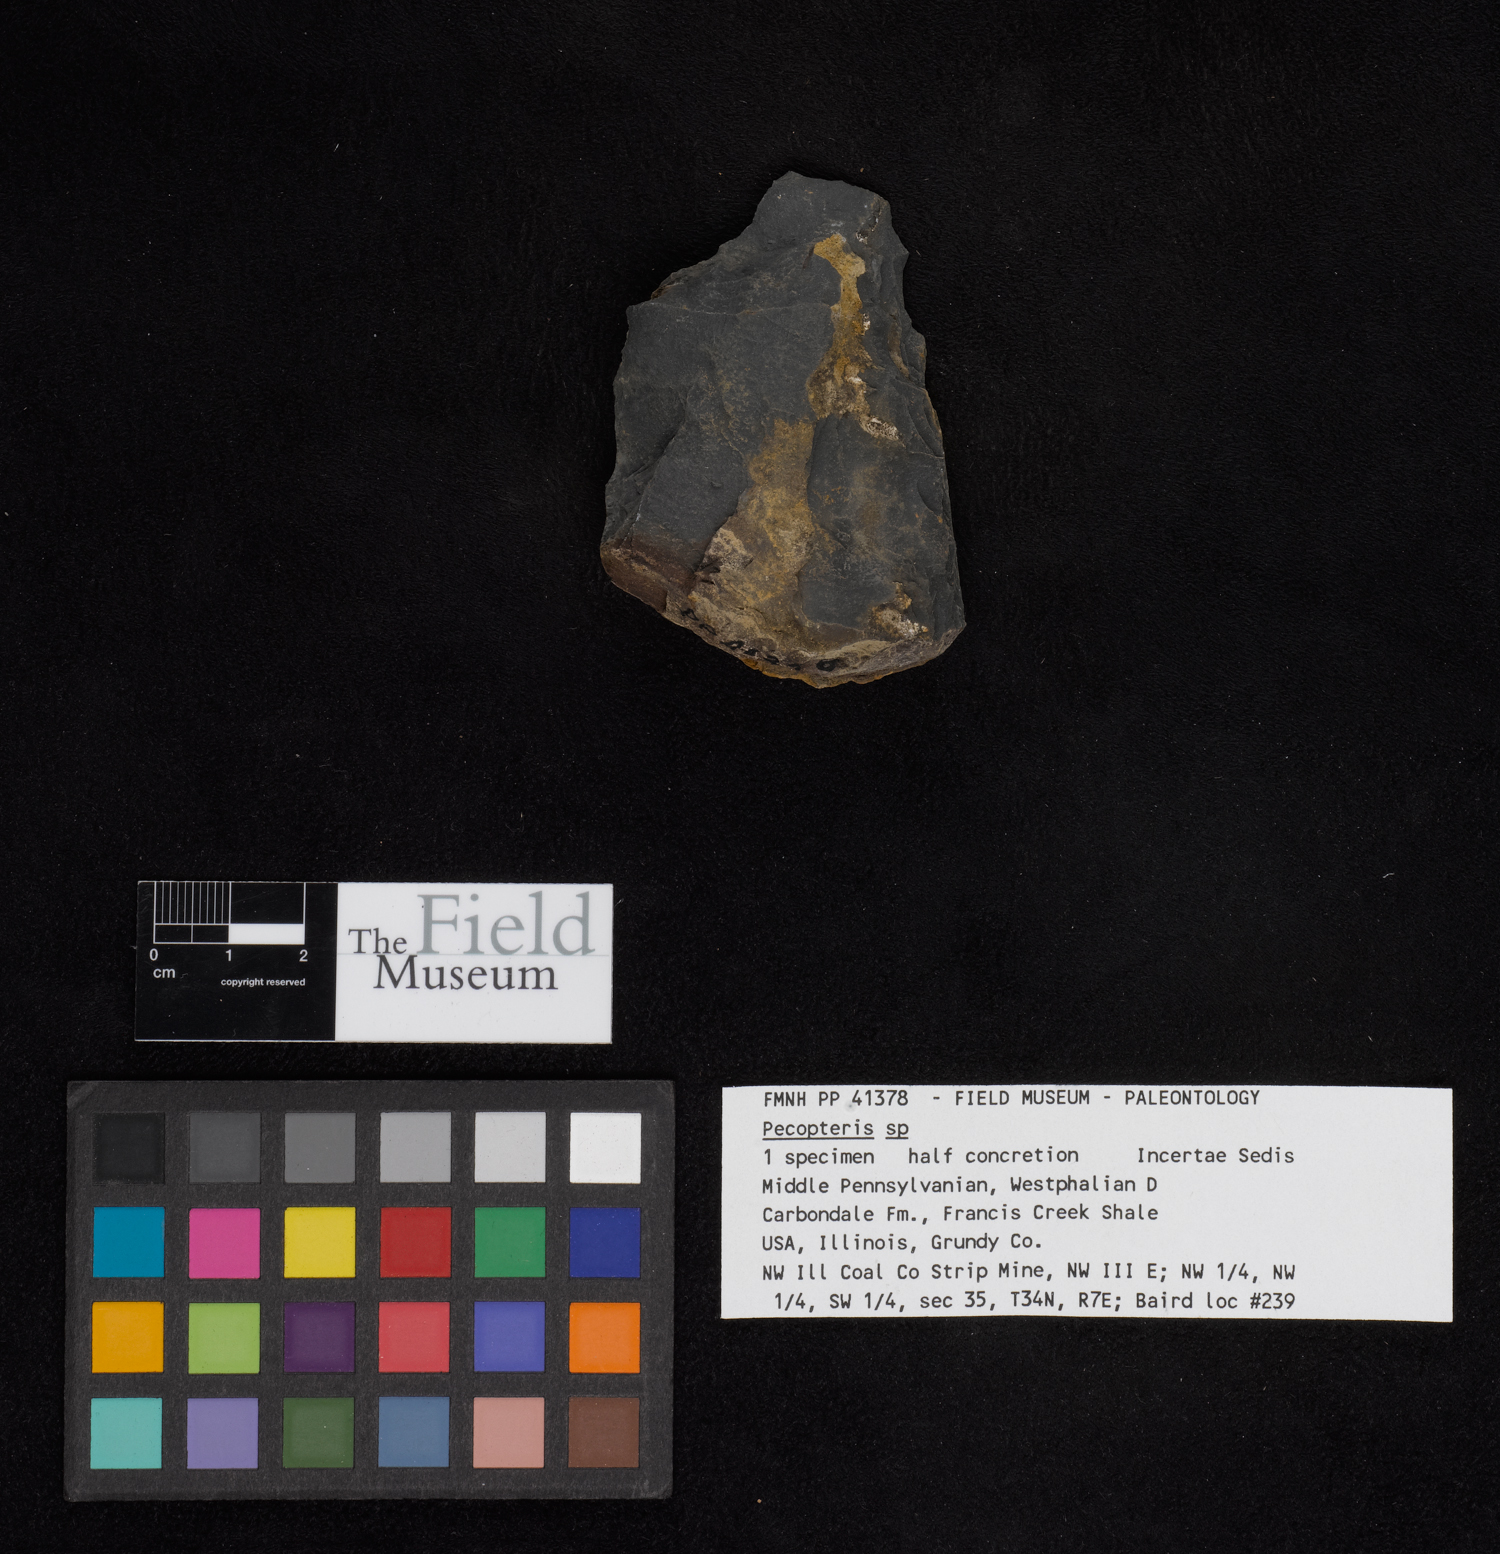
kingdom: Plantae
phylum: Tracheophyta
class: Polypodiopsida
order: Marattiales
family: Asterothecaceae
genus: Pecopteris
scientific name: Pecopteris
